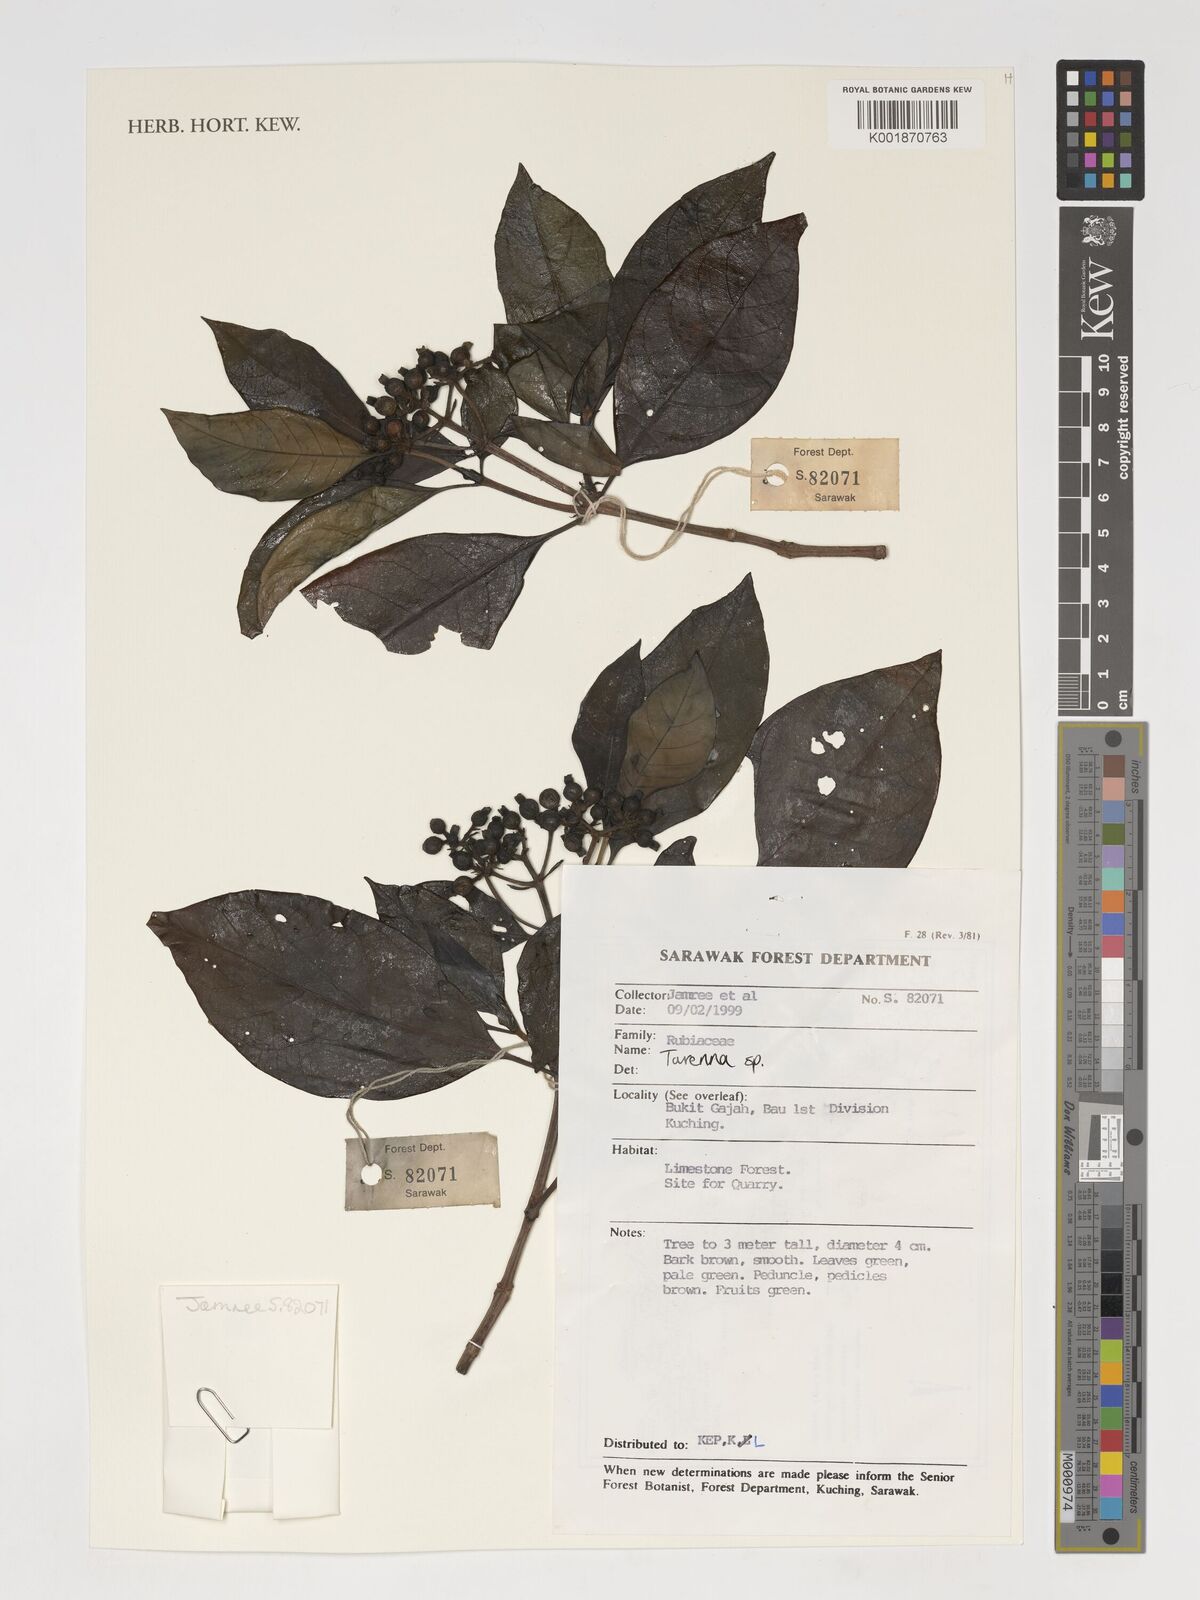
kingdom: Plantae
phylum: Tracheophyta
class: Magnoliopsida
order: Gentianales
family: Rubiaceae
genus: Tarenna
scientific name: Tarenna
